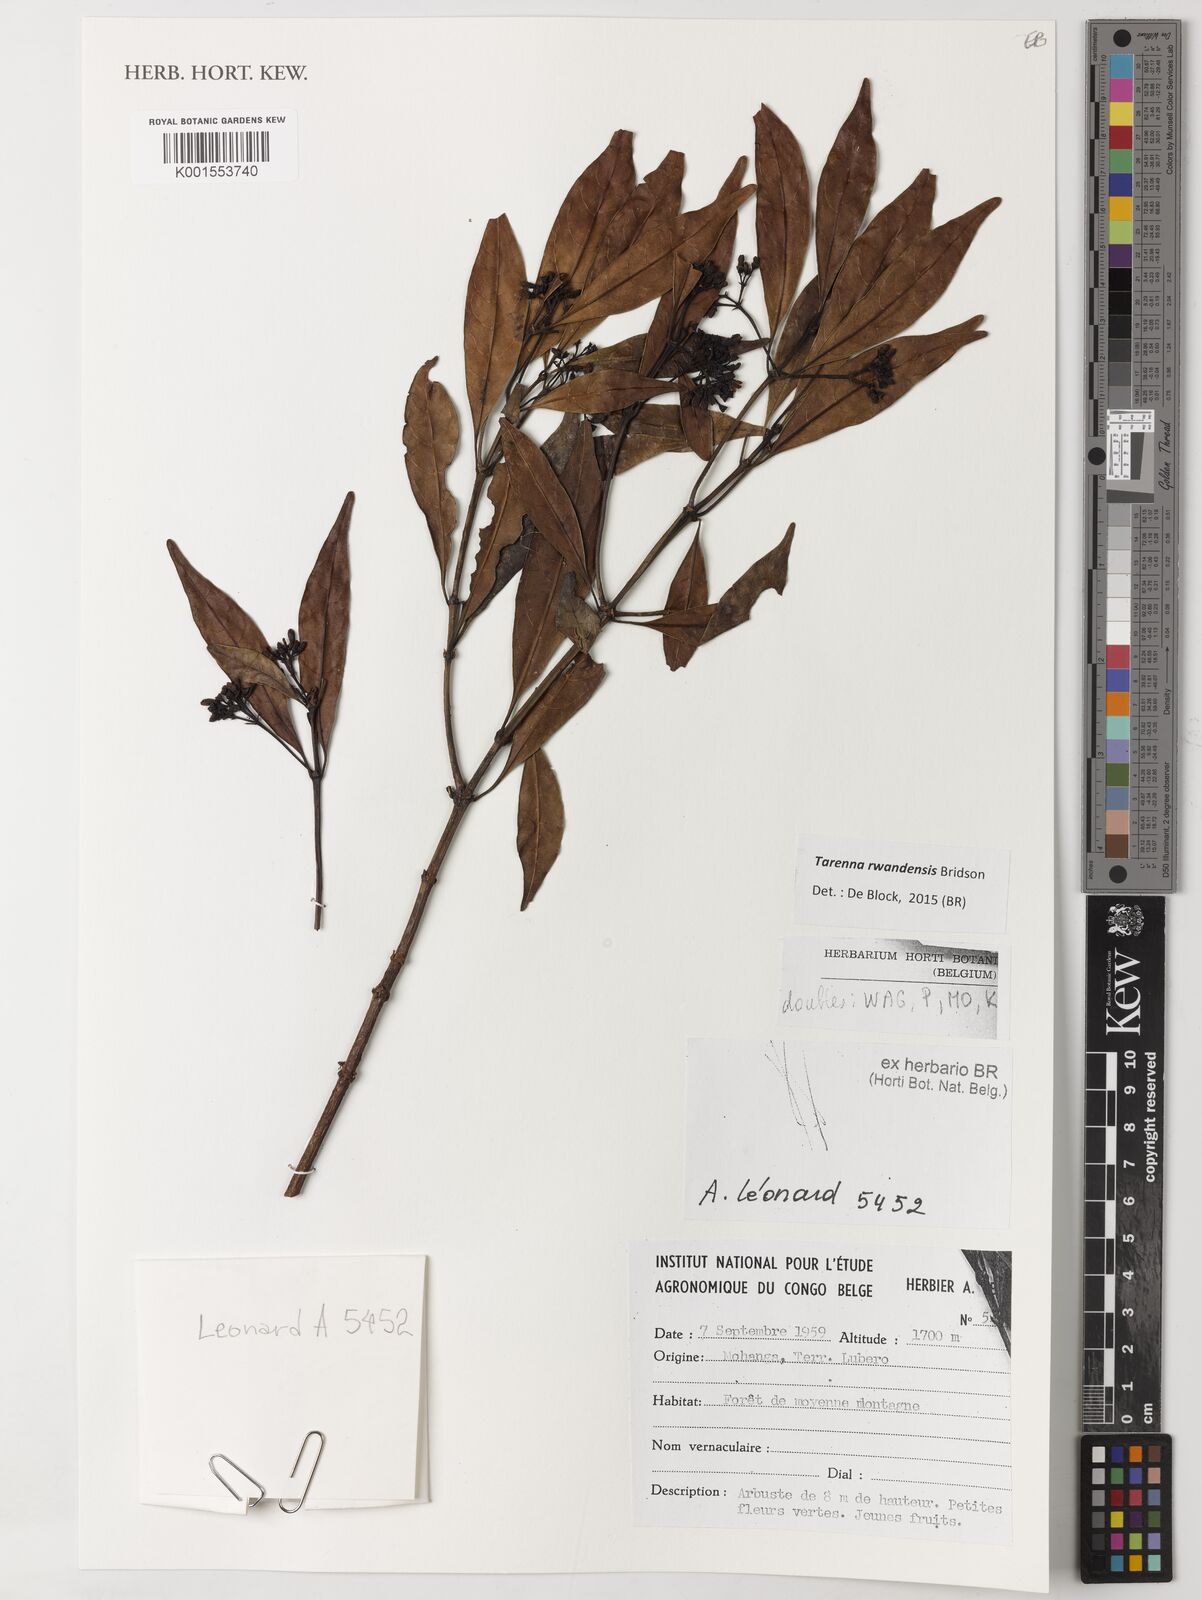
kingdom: Plantae
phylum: Tracheophyta
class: Magnoliopsida
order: Gentianales
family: Rubiaceae
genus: Tarenna
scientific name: Tarenna rwandensis
